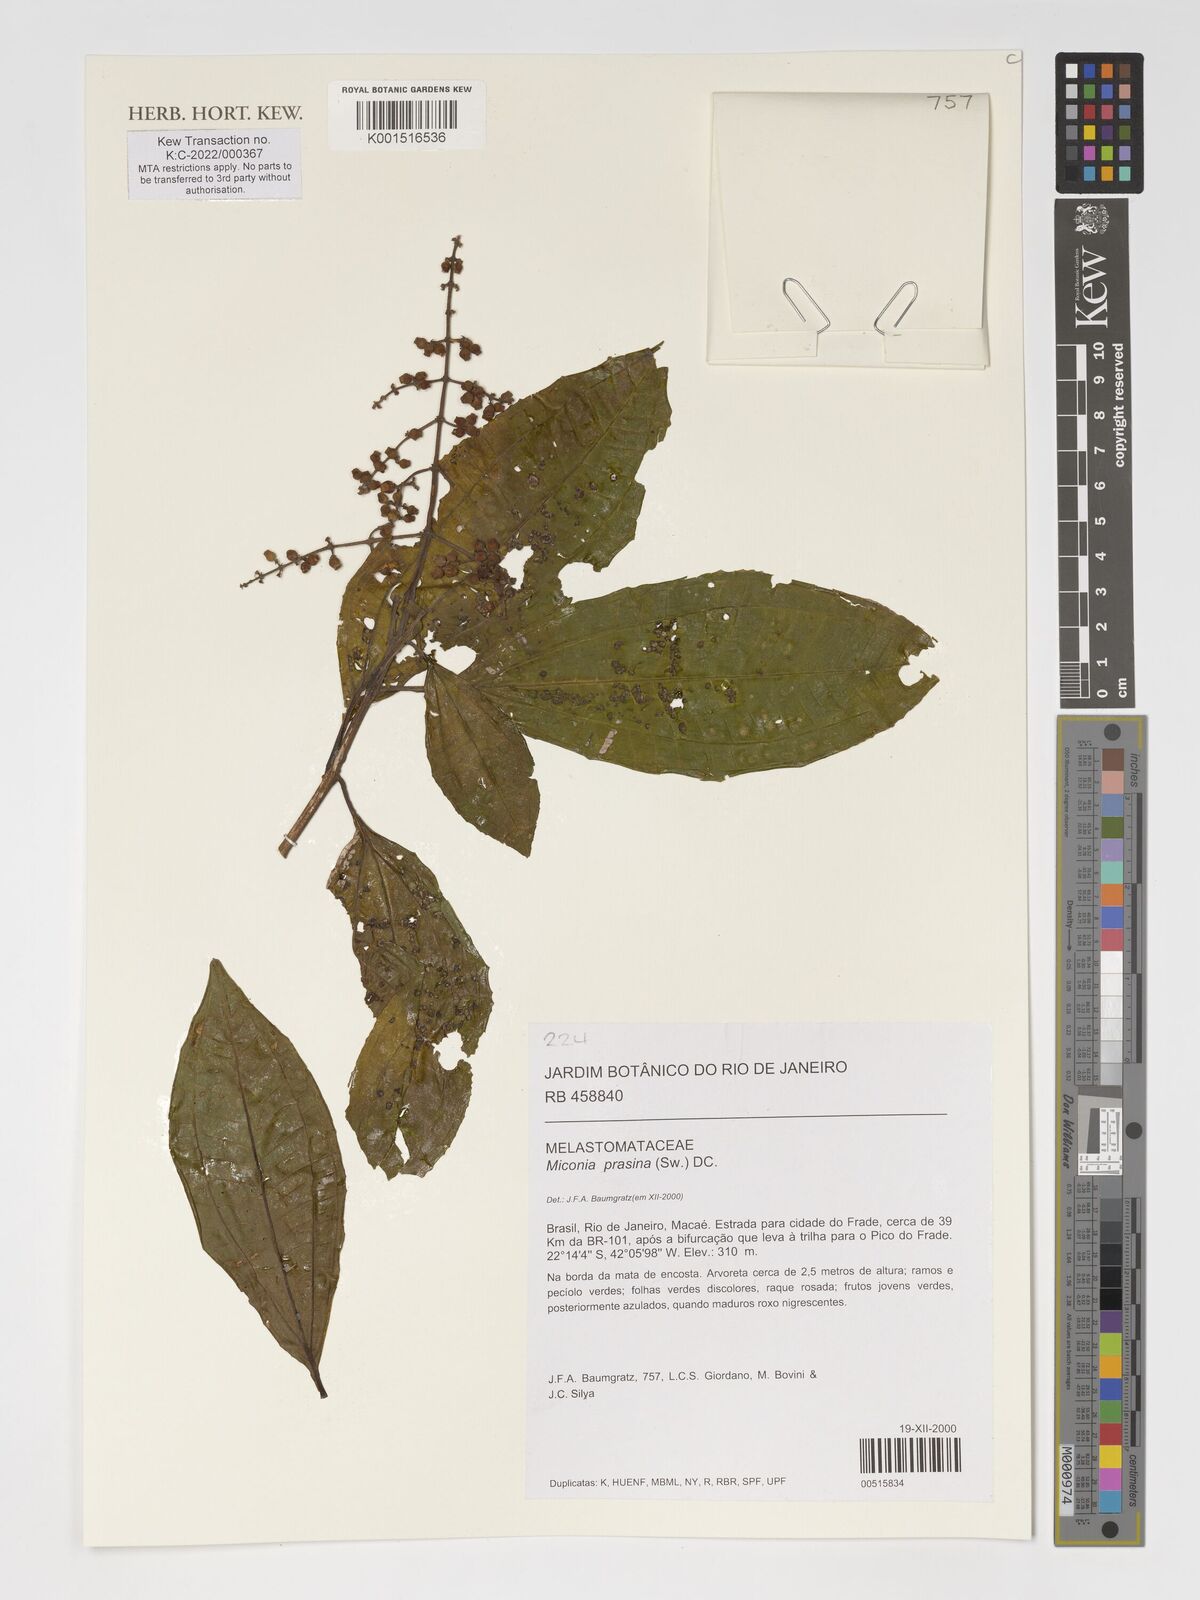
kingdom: Plantae
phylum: Tracheophyta
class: Magnoliopsida
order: Myrtales
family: Melastomataceae
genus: Miconia
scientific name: Miconia prasina
